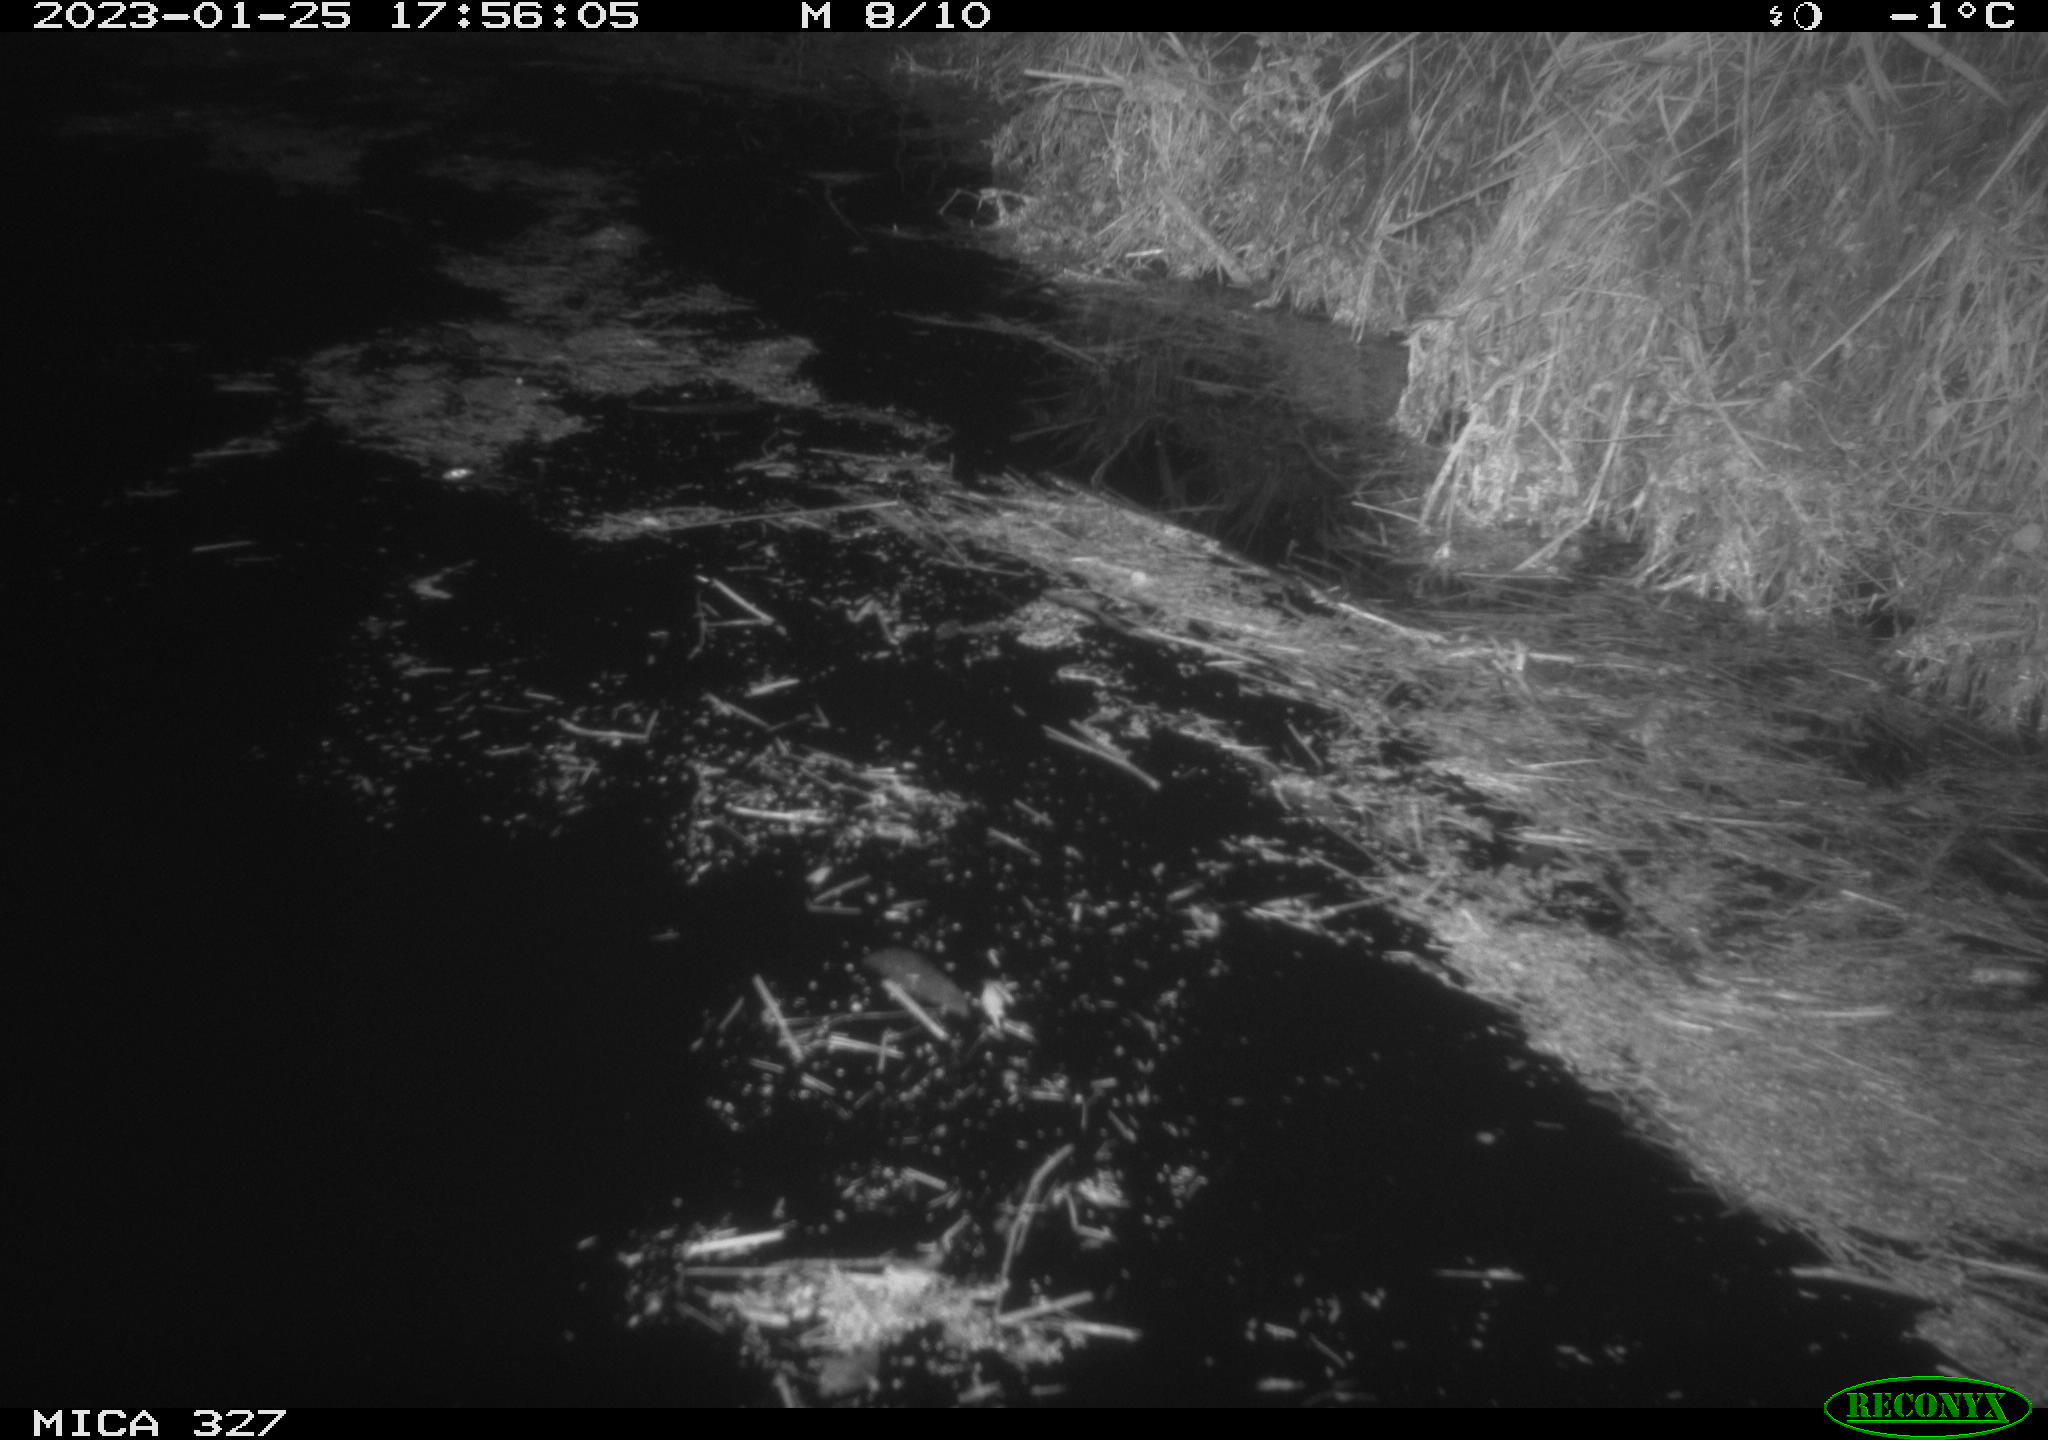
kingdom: Animalia
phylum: Chordata
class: Mammalia
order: Rodentia
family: Cricetidae
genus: Ondatra
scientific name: Ondatra zibethicus
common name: Muskrat
